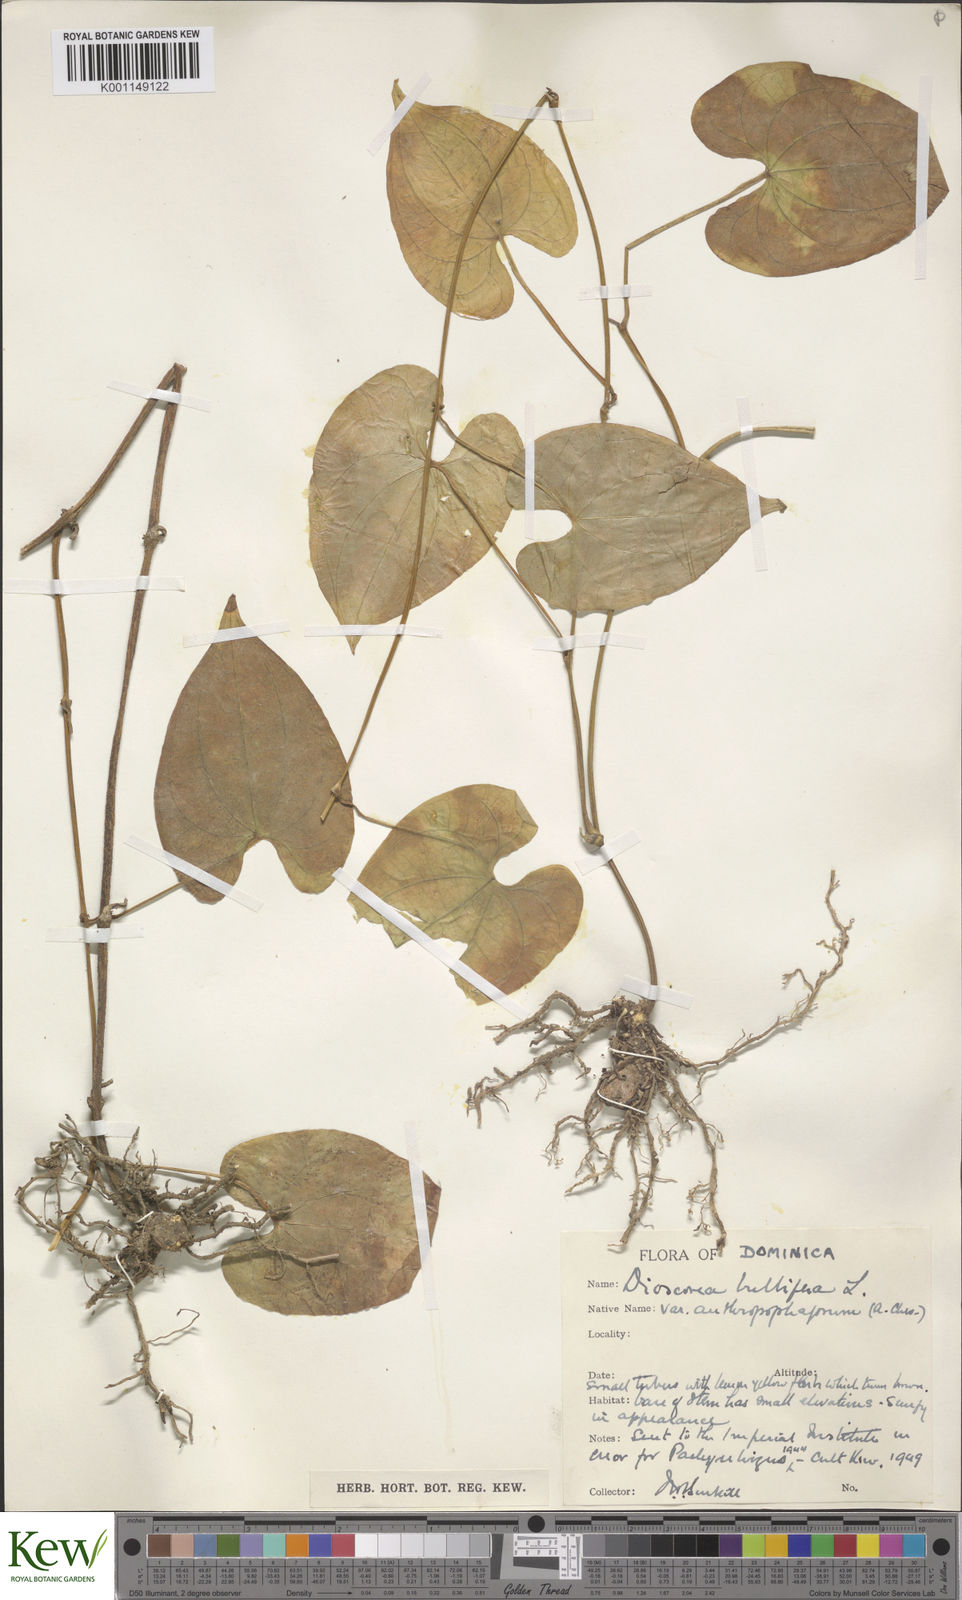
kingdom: Plantae
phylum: Tracheophyta
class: Liliopsida
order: Dioscoreales
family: Dioscoreaceae
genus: Dioscorea
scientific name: Dioscorea bulbifera
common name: Air yam
